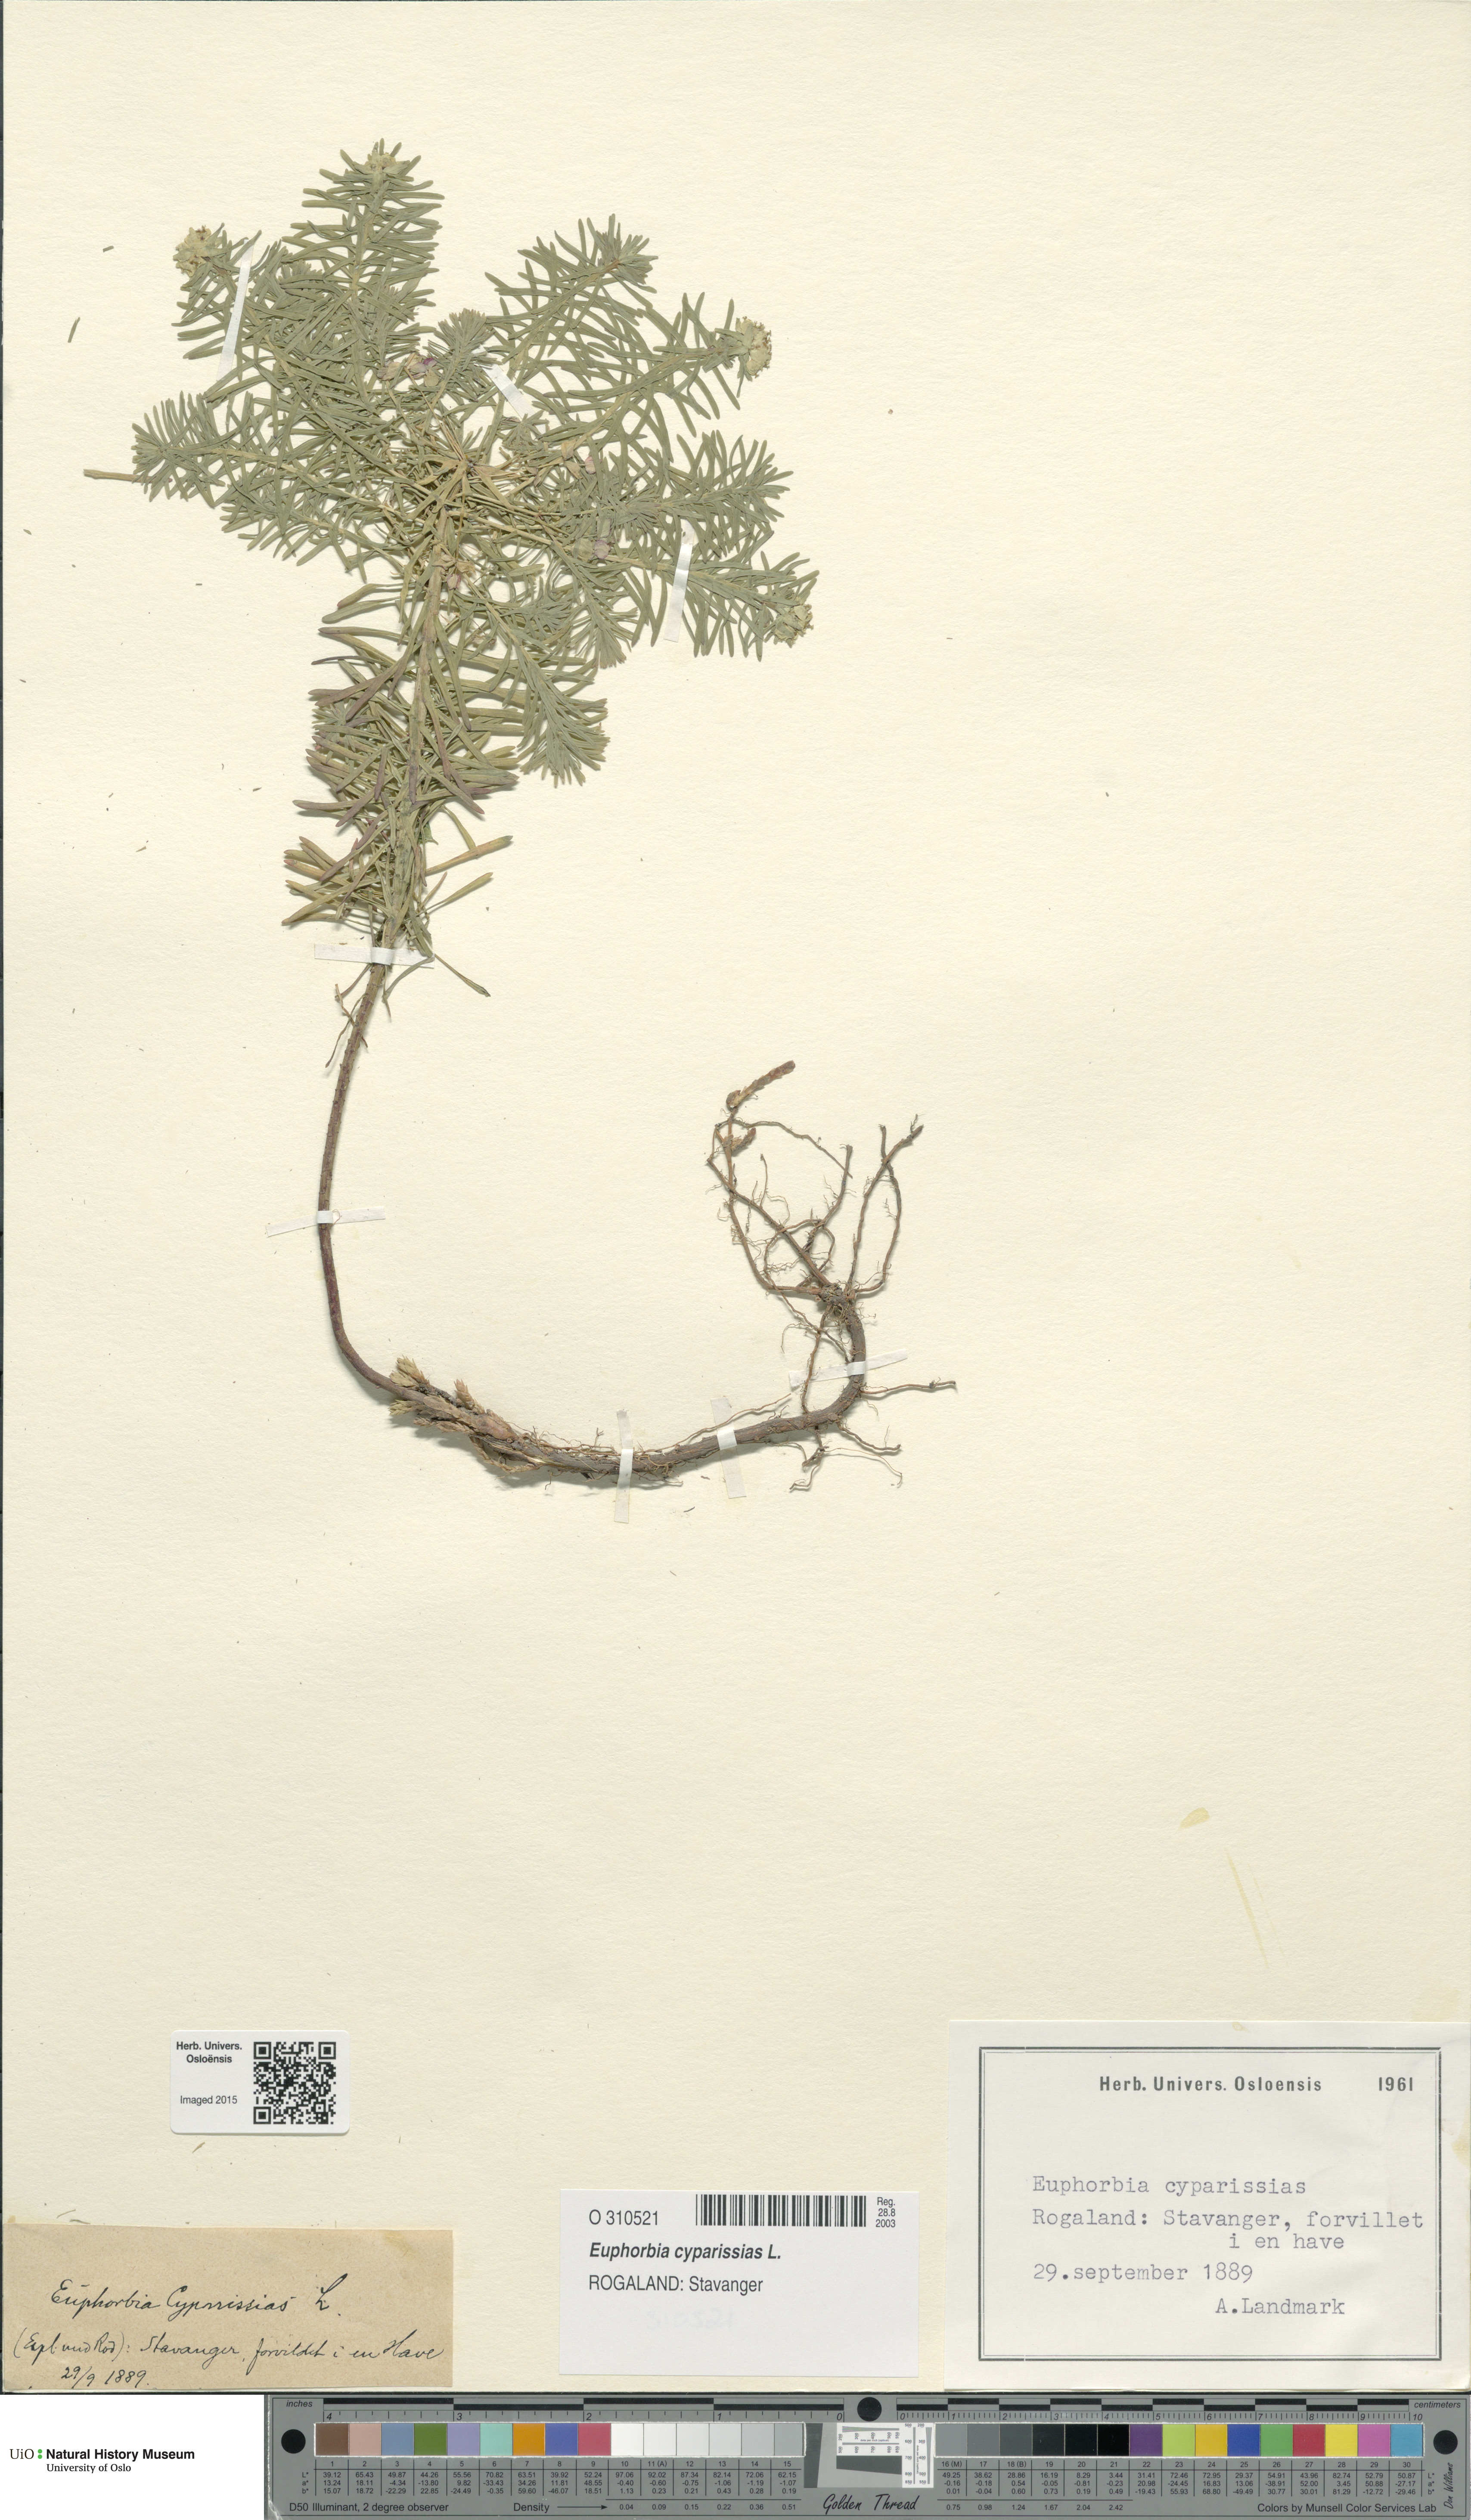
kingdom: Plantae
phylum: Tracheophyta
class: Magnoliopsida
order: Malpighiales
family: Euphorbiaceae
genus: Euphorbia
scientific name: Euphorbia cyparissias
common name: Cypress spurge
